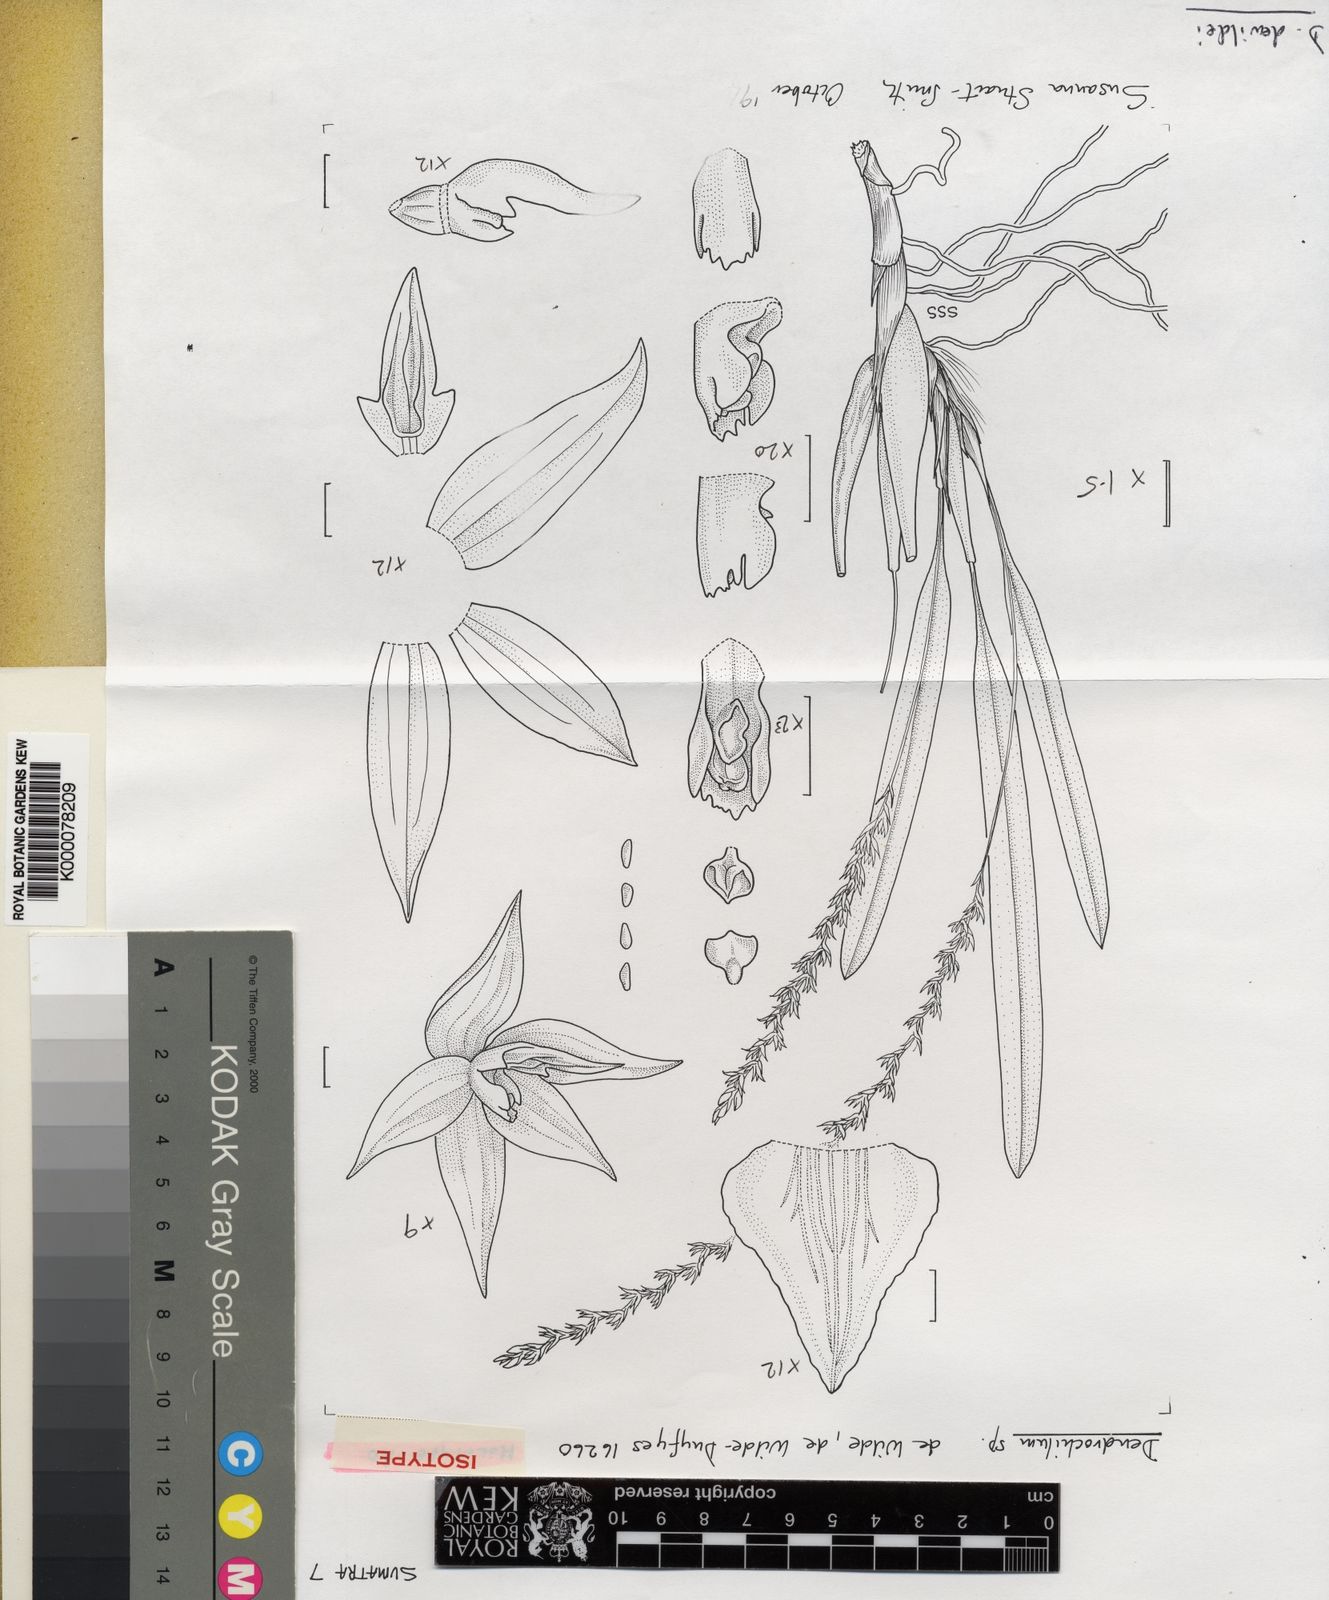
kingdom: Plantae
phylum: Tracheophyta
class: Liliopsida
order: Asparagales
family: Orchidaceae
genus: Coelogyne
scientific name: Coelogyne
